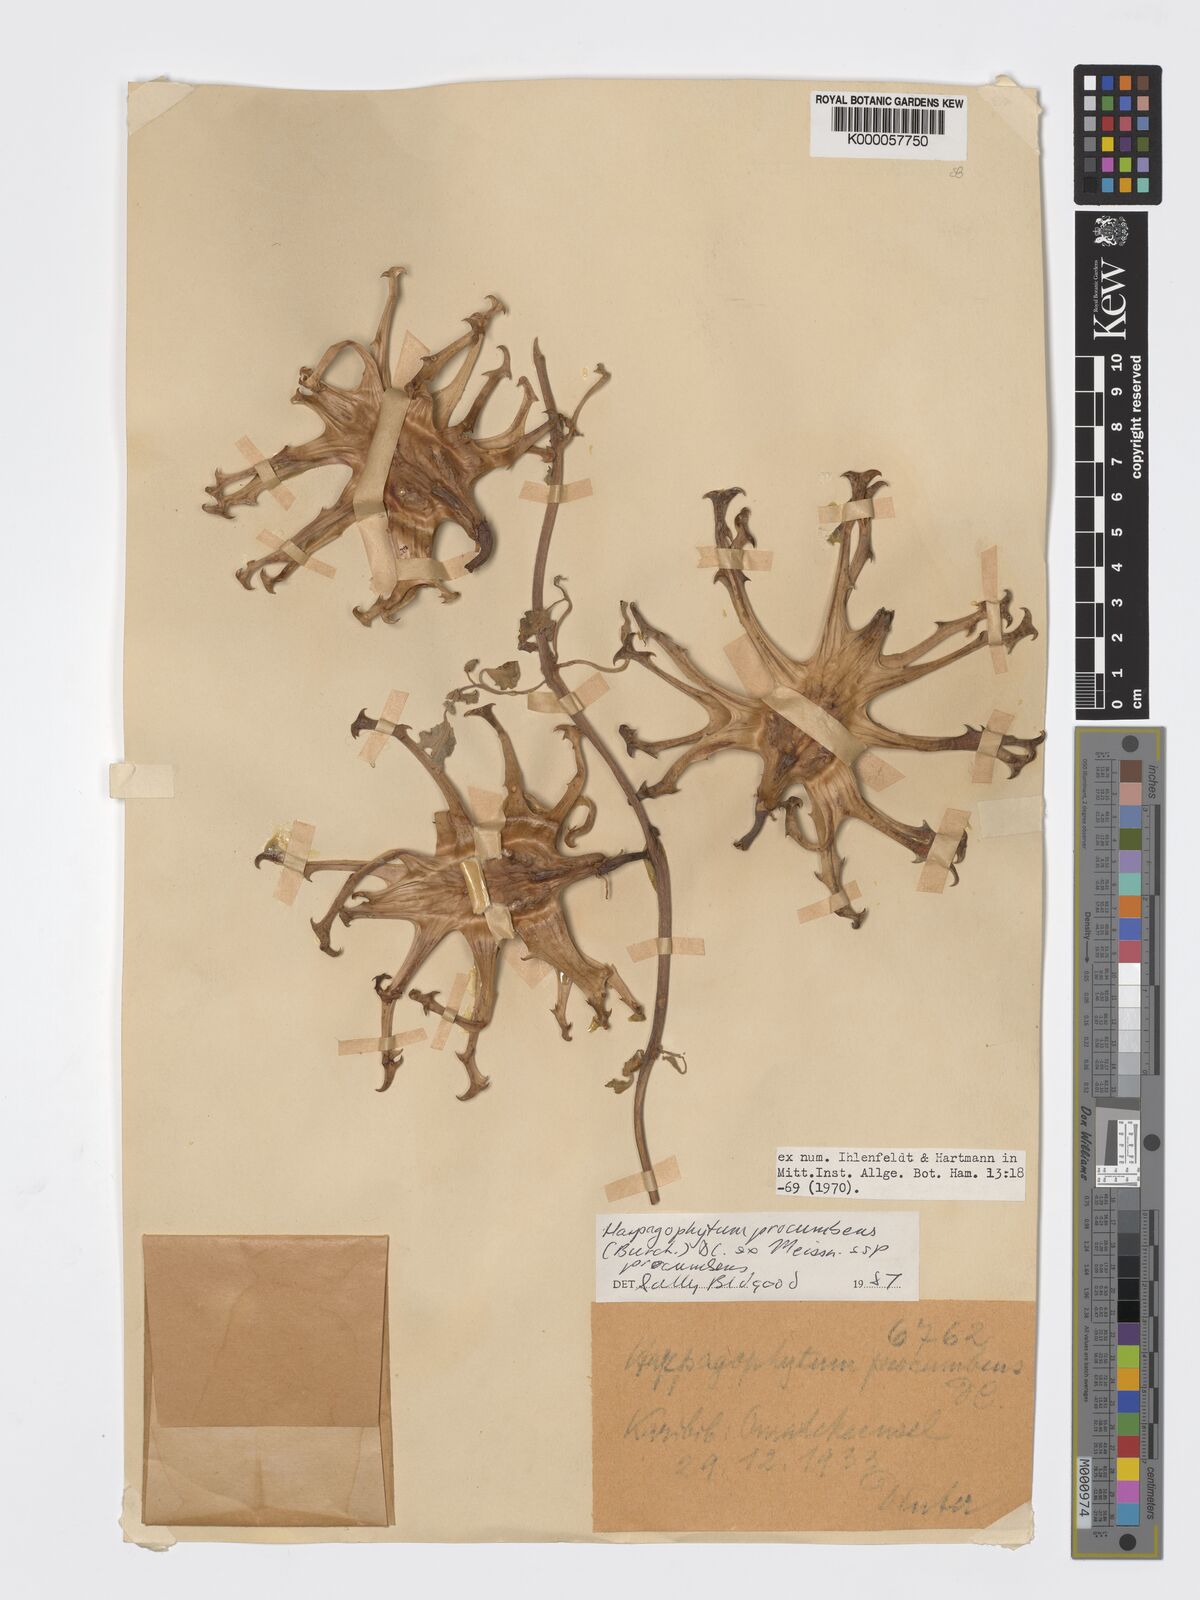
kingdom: Plantae
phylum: Tracheophyta
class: Magnoliopsida
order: Lamiales
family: Pedaliaceae
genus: Harpagophytum
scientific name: Harpagophytum procumbens
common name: Grappleplant
